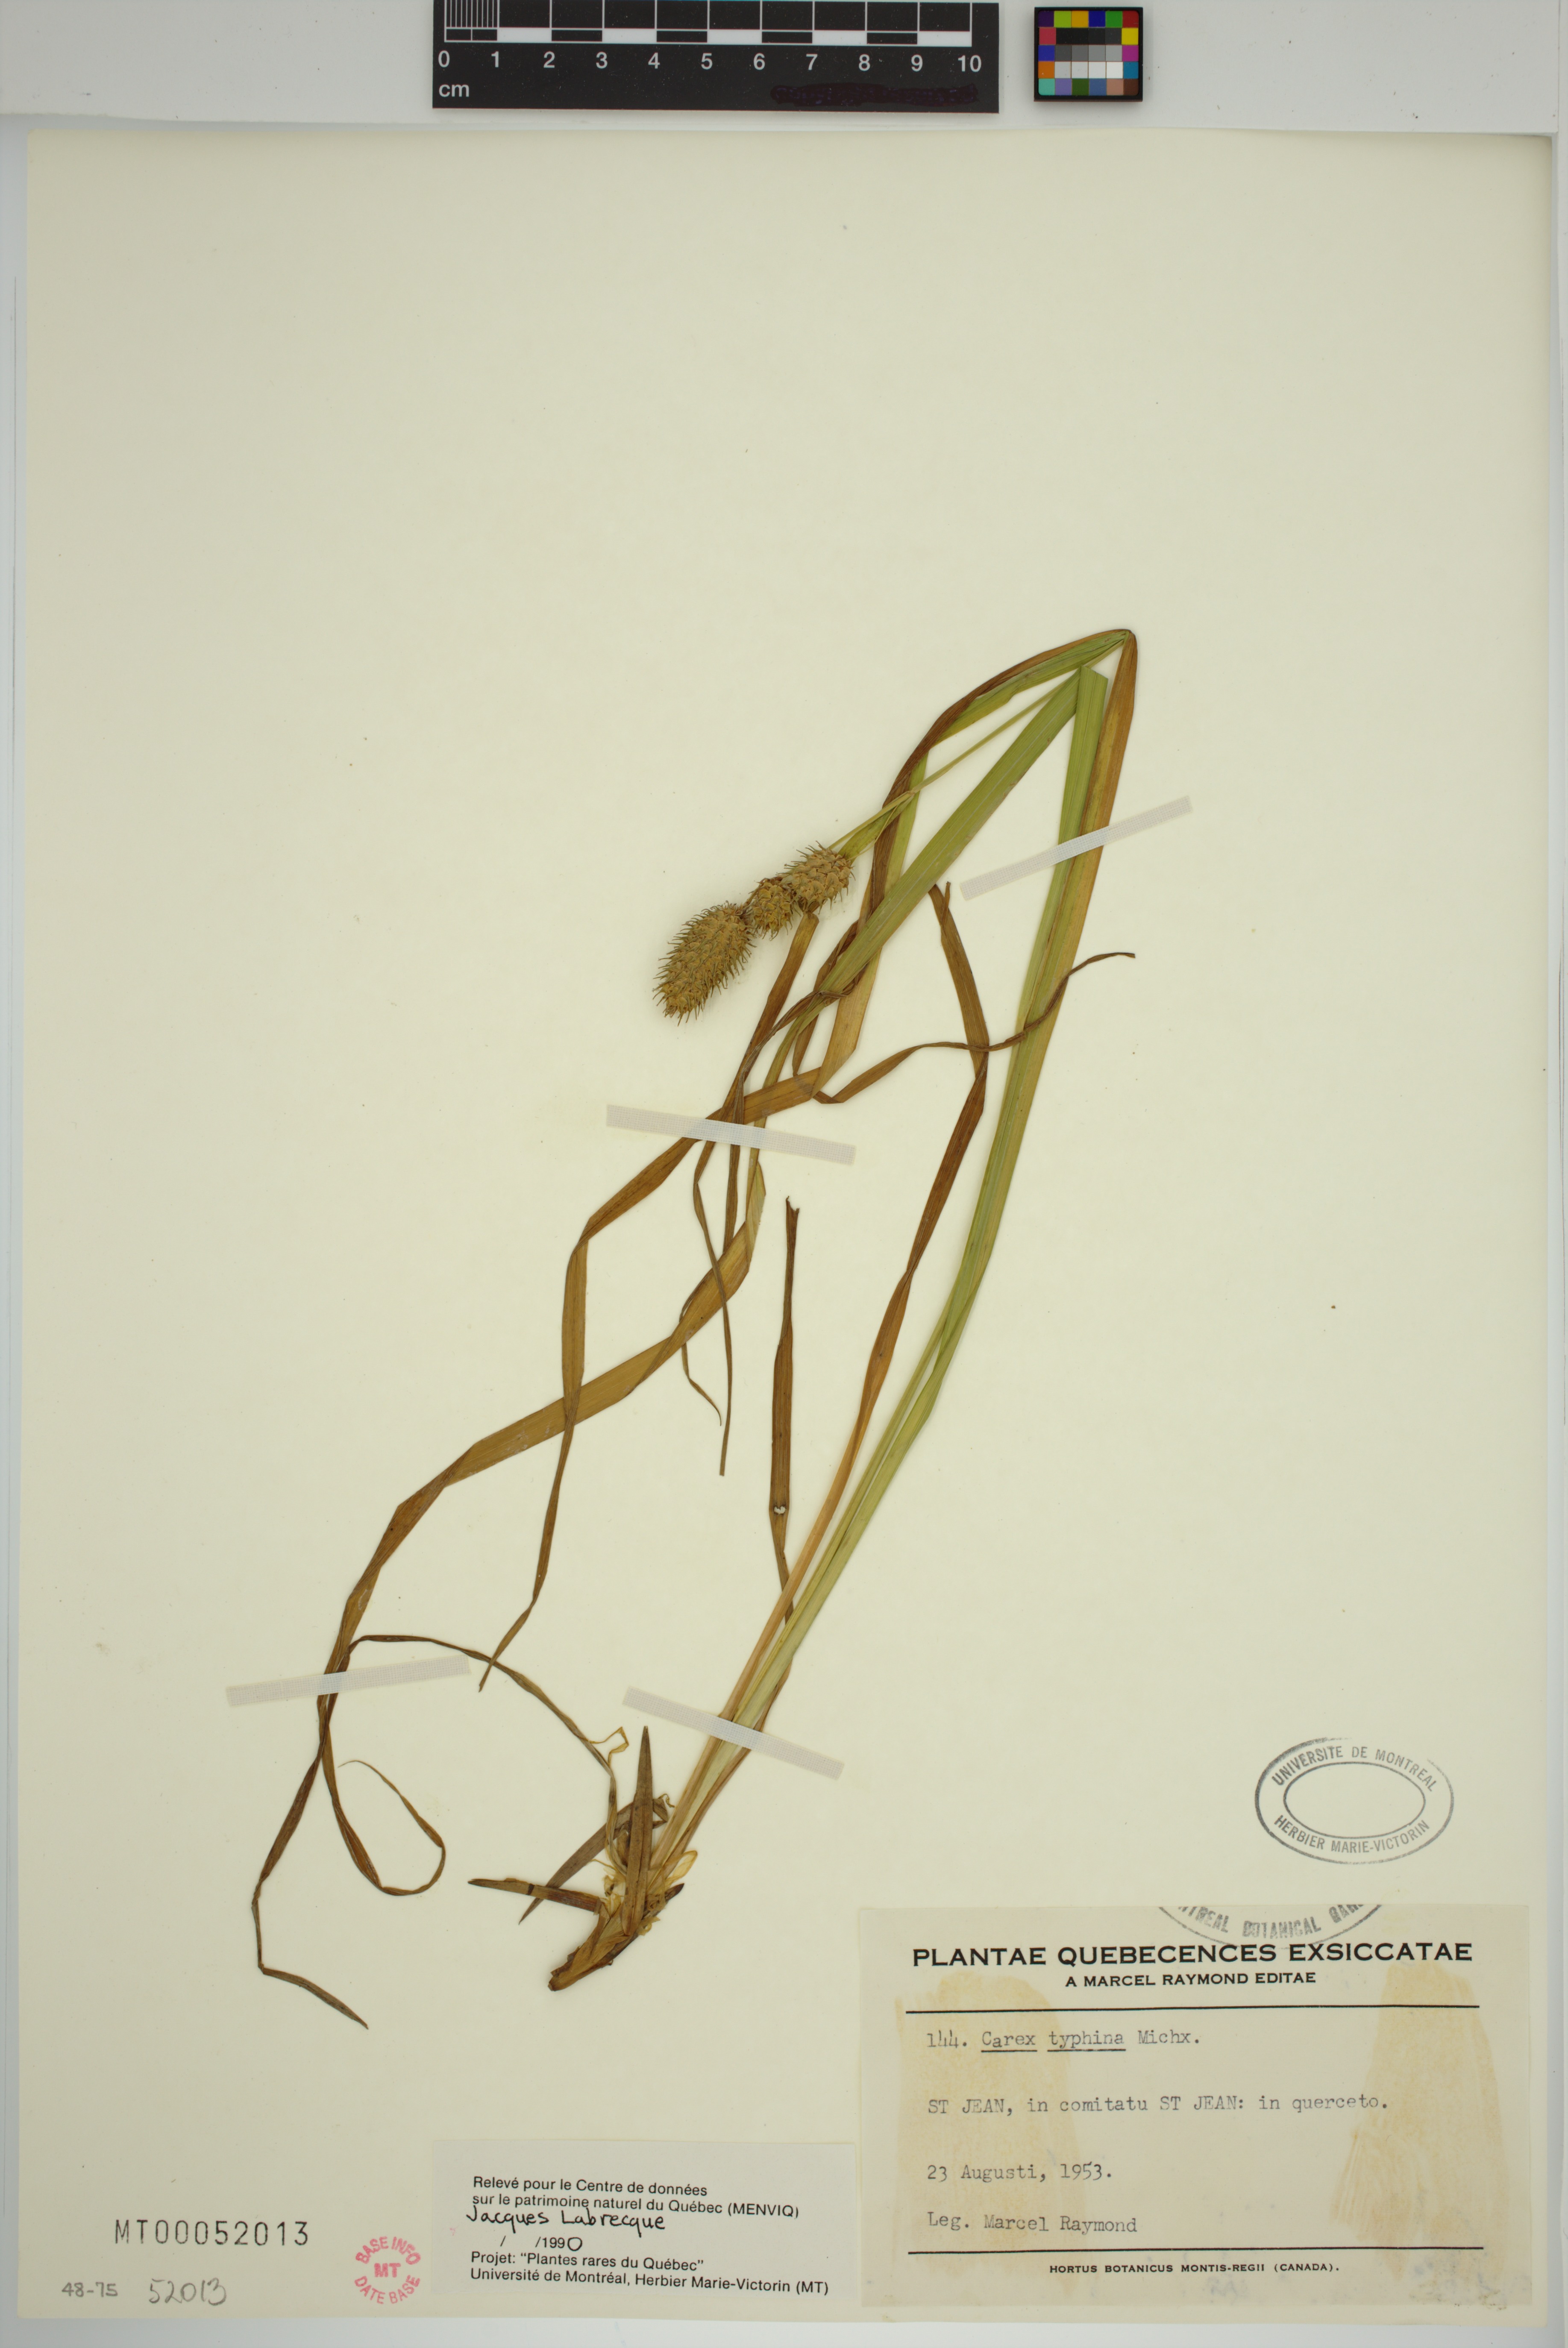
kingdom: Plantae
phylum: Tracheophyta
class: Liliopsida
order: Poales
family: Cyperaceae
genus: Carex
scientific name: Carex typhina
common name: Cattail sedge
